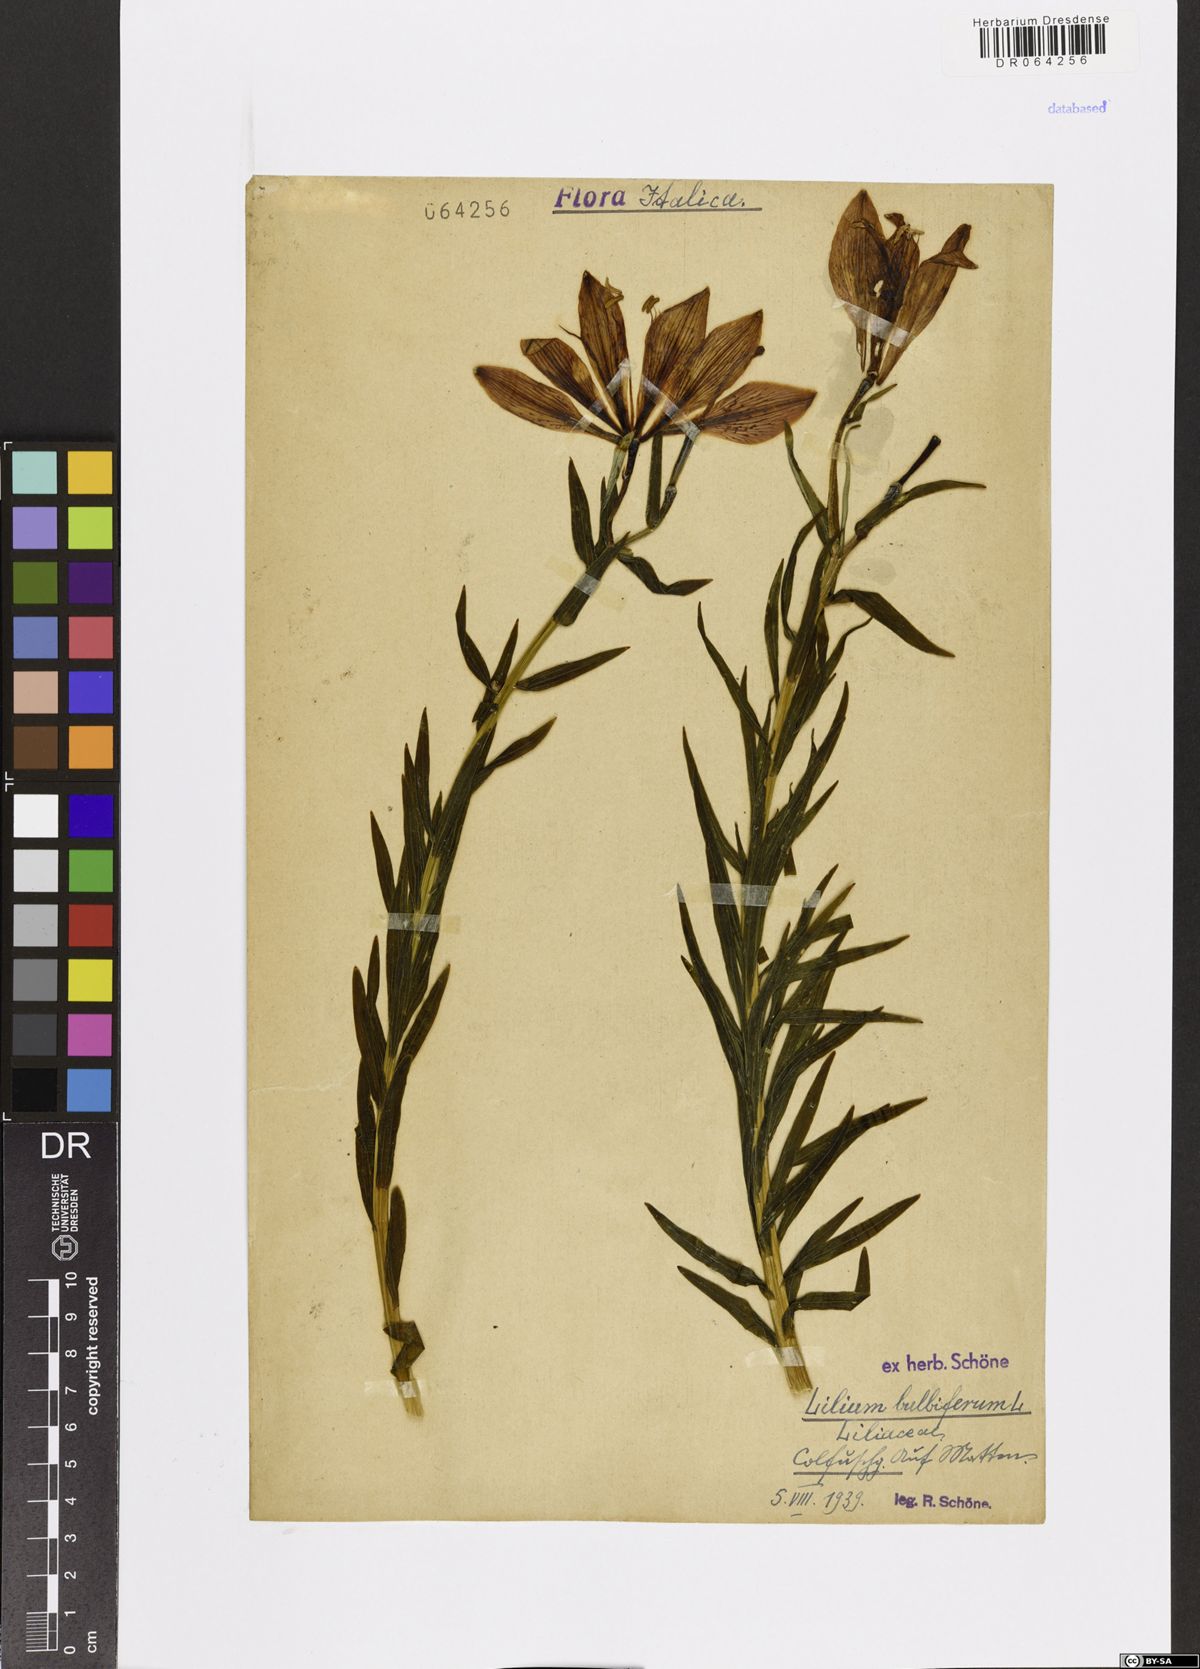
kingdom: Plantae
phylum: Tracheophyta
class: Liliopsida
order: Liliales
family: Liliaceae
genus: Lilium
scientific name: Lilium bulbiferum
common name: Orange lily
